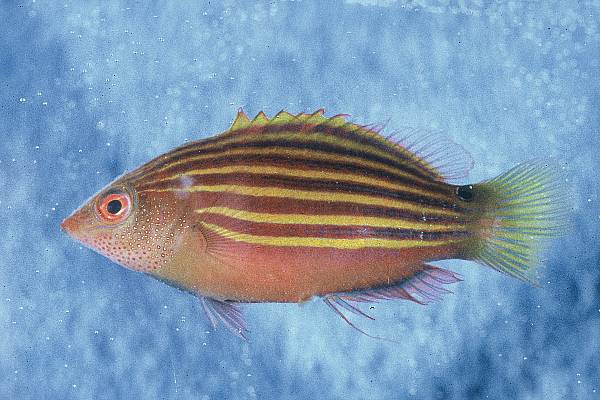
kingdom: Animalia
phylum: Chordata
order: Perciformes
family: Labridae
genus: Pseudocheilinus
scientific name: Pseudocheilinus hexataenia
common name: Sixline wrasse
